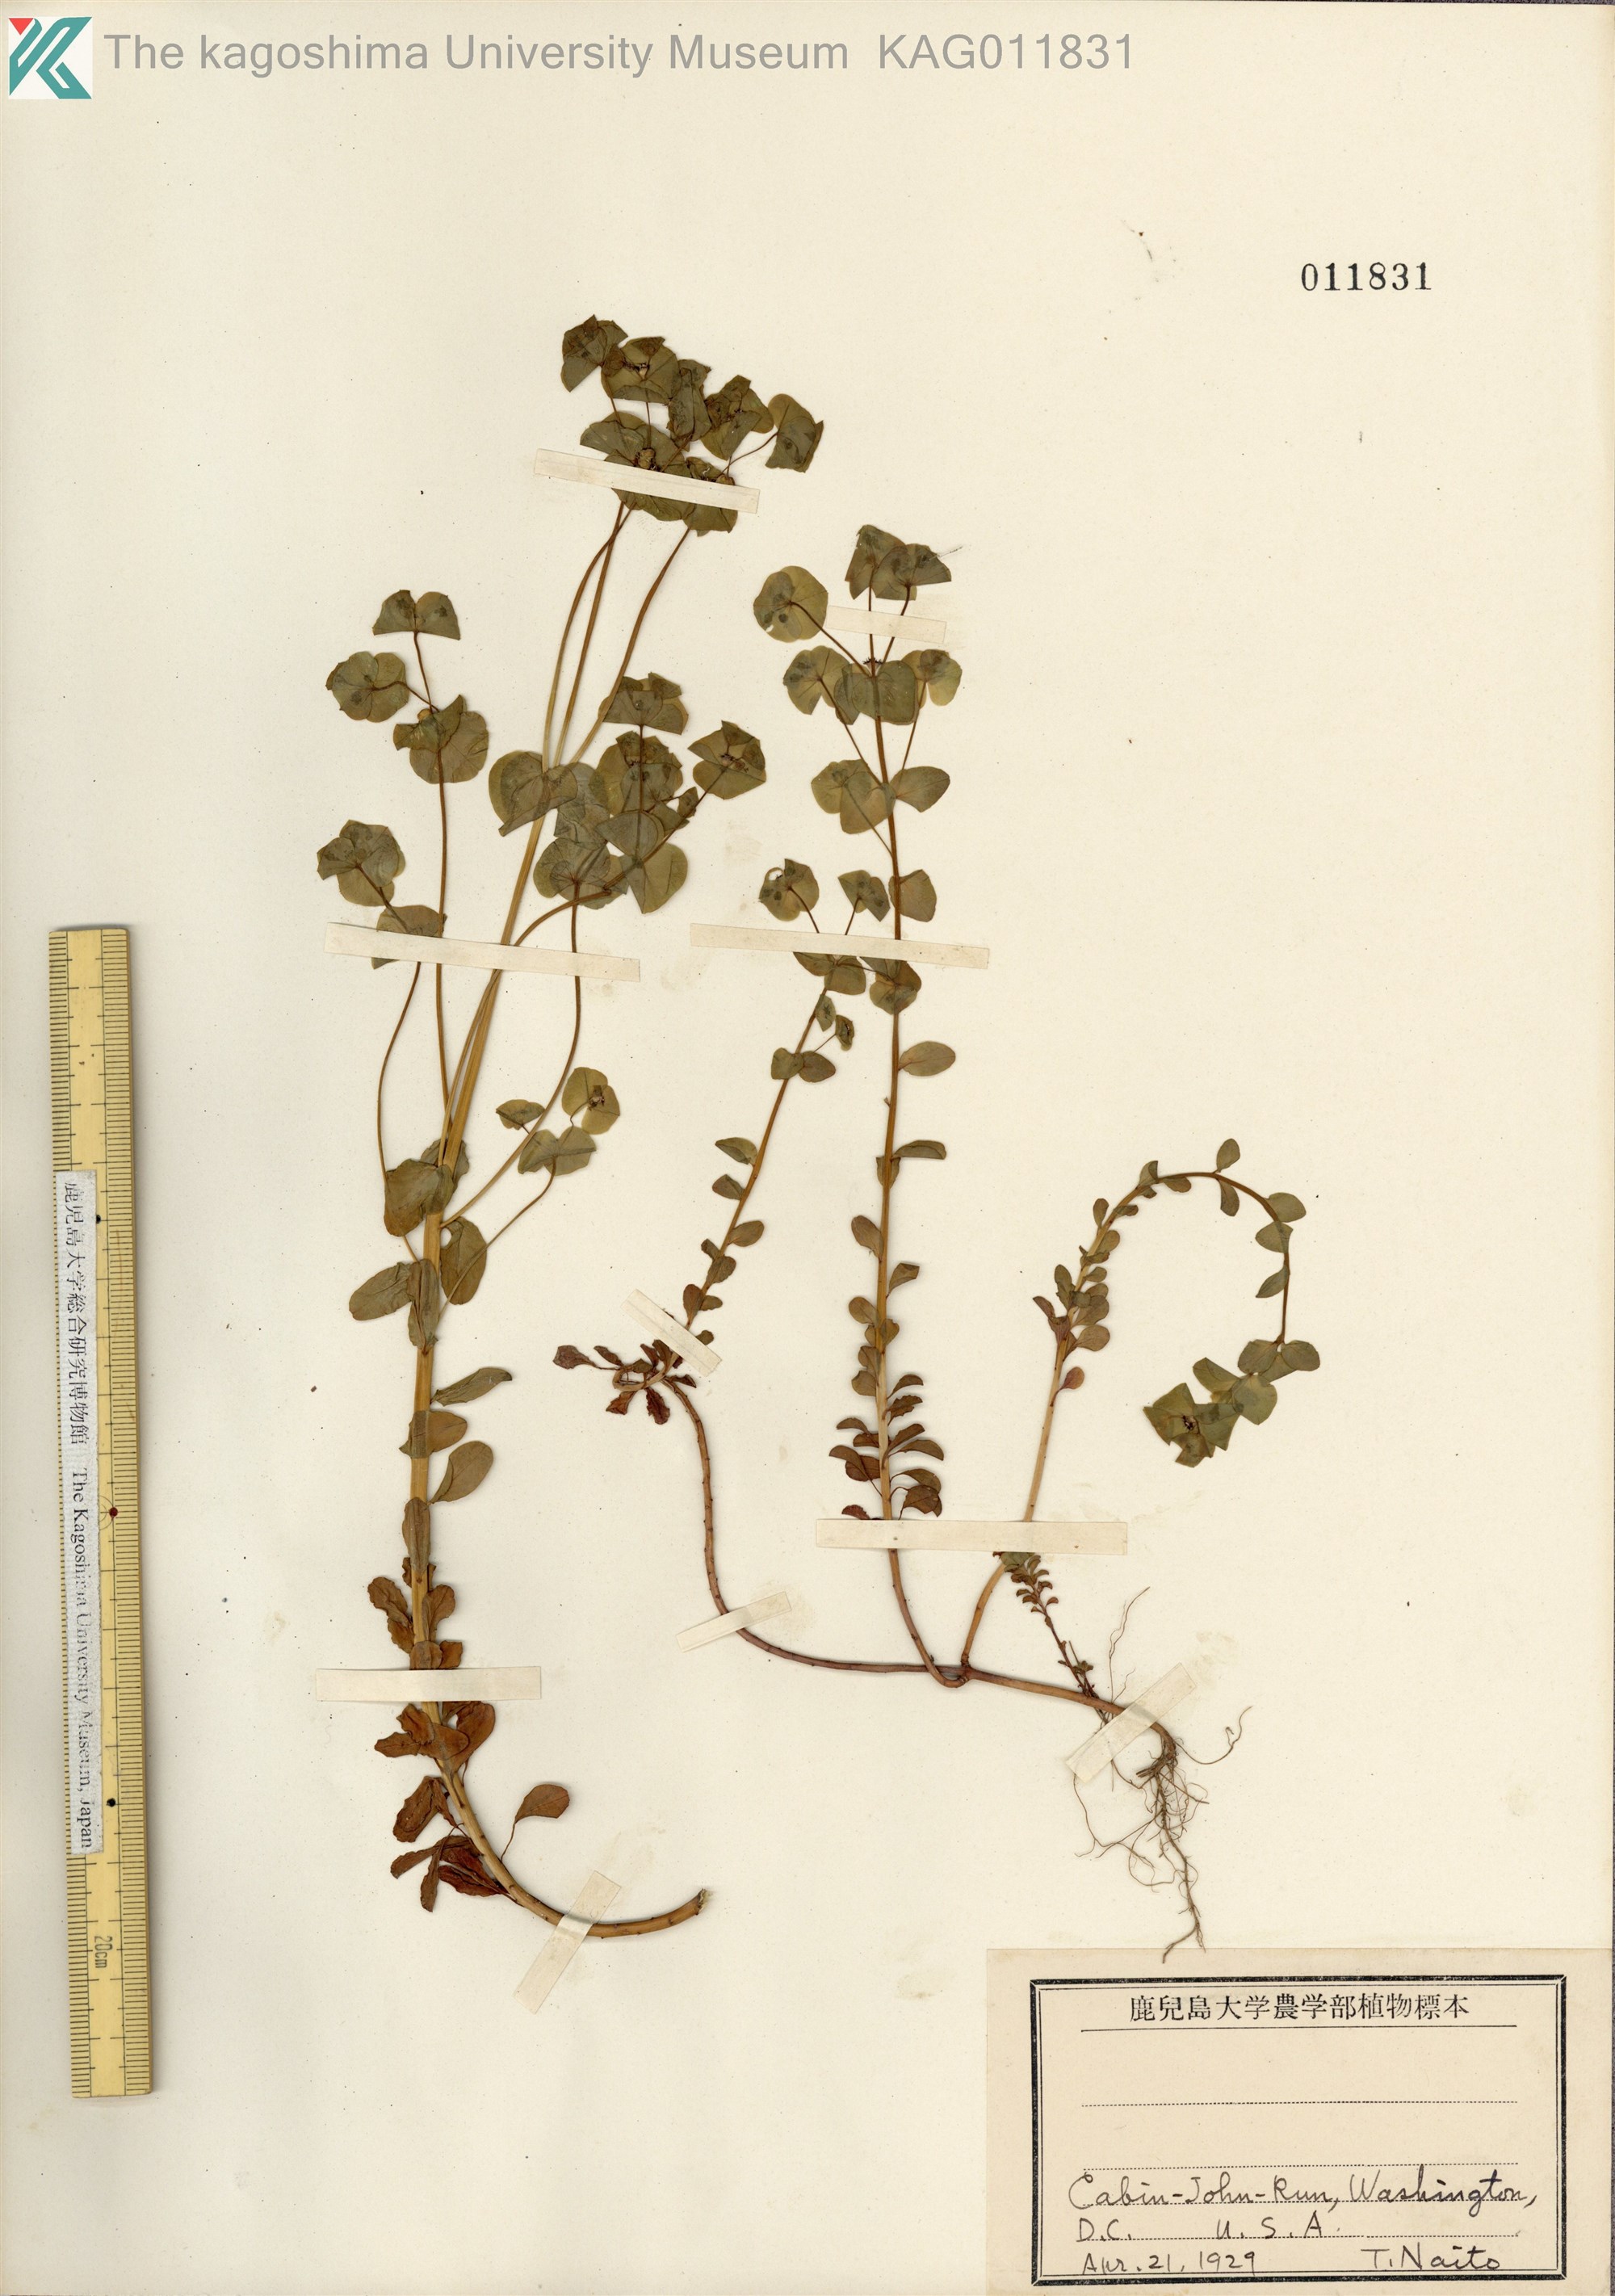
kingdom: Plantae
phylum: Tracheophyta
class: Magnoliopsida
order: Malpighiales
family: Euphorbiaceae
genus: Euphorbia
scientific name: Euphorbia amygdaloides
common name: Wood spurge
